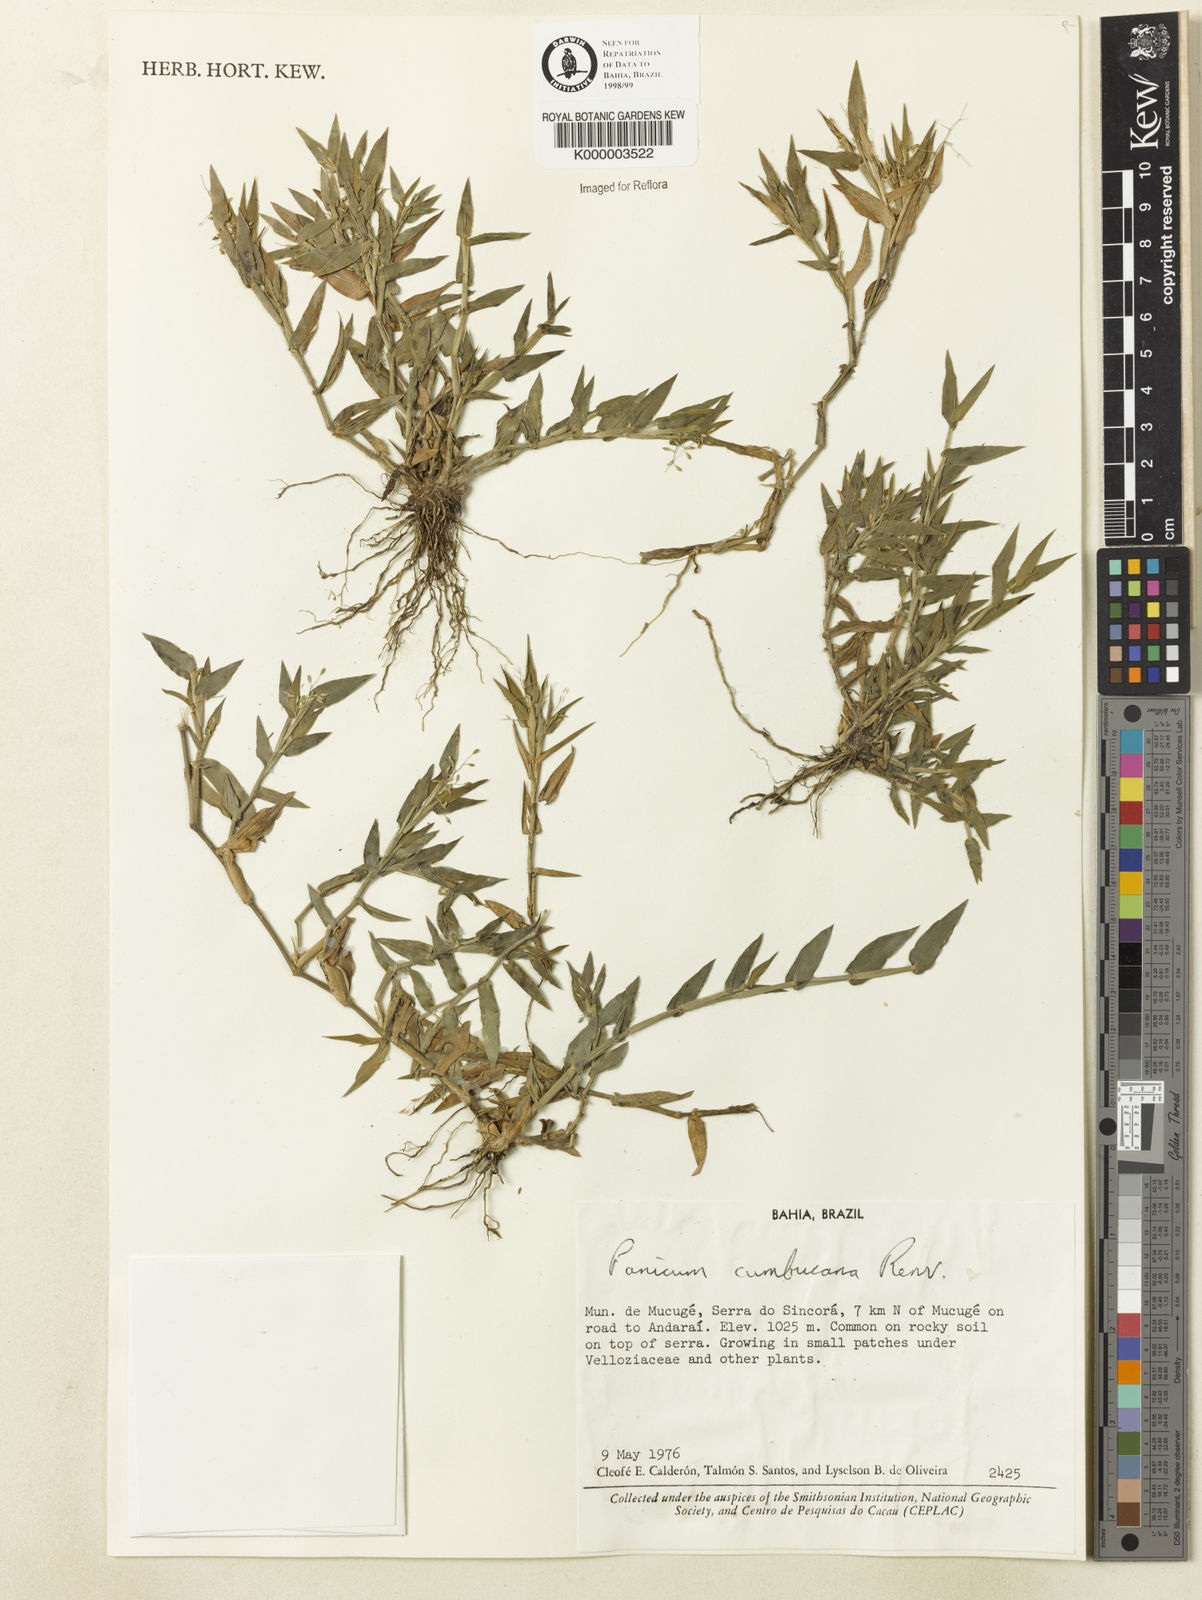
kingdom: Plantae
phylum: Tracheophyta
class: Liliopsida
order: Poales
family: Poaceae
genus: Dichanthelium
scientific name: Dichanthelium cumbucanum
